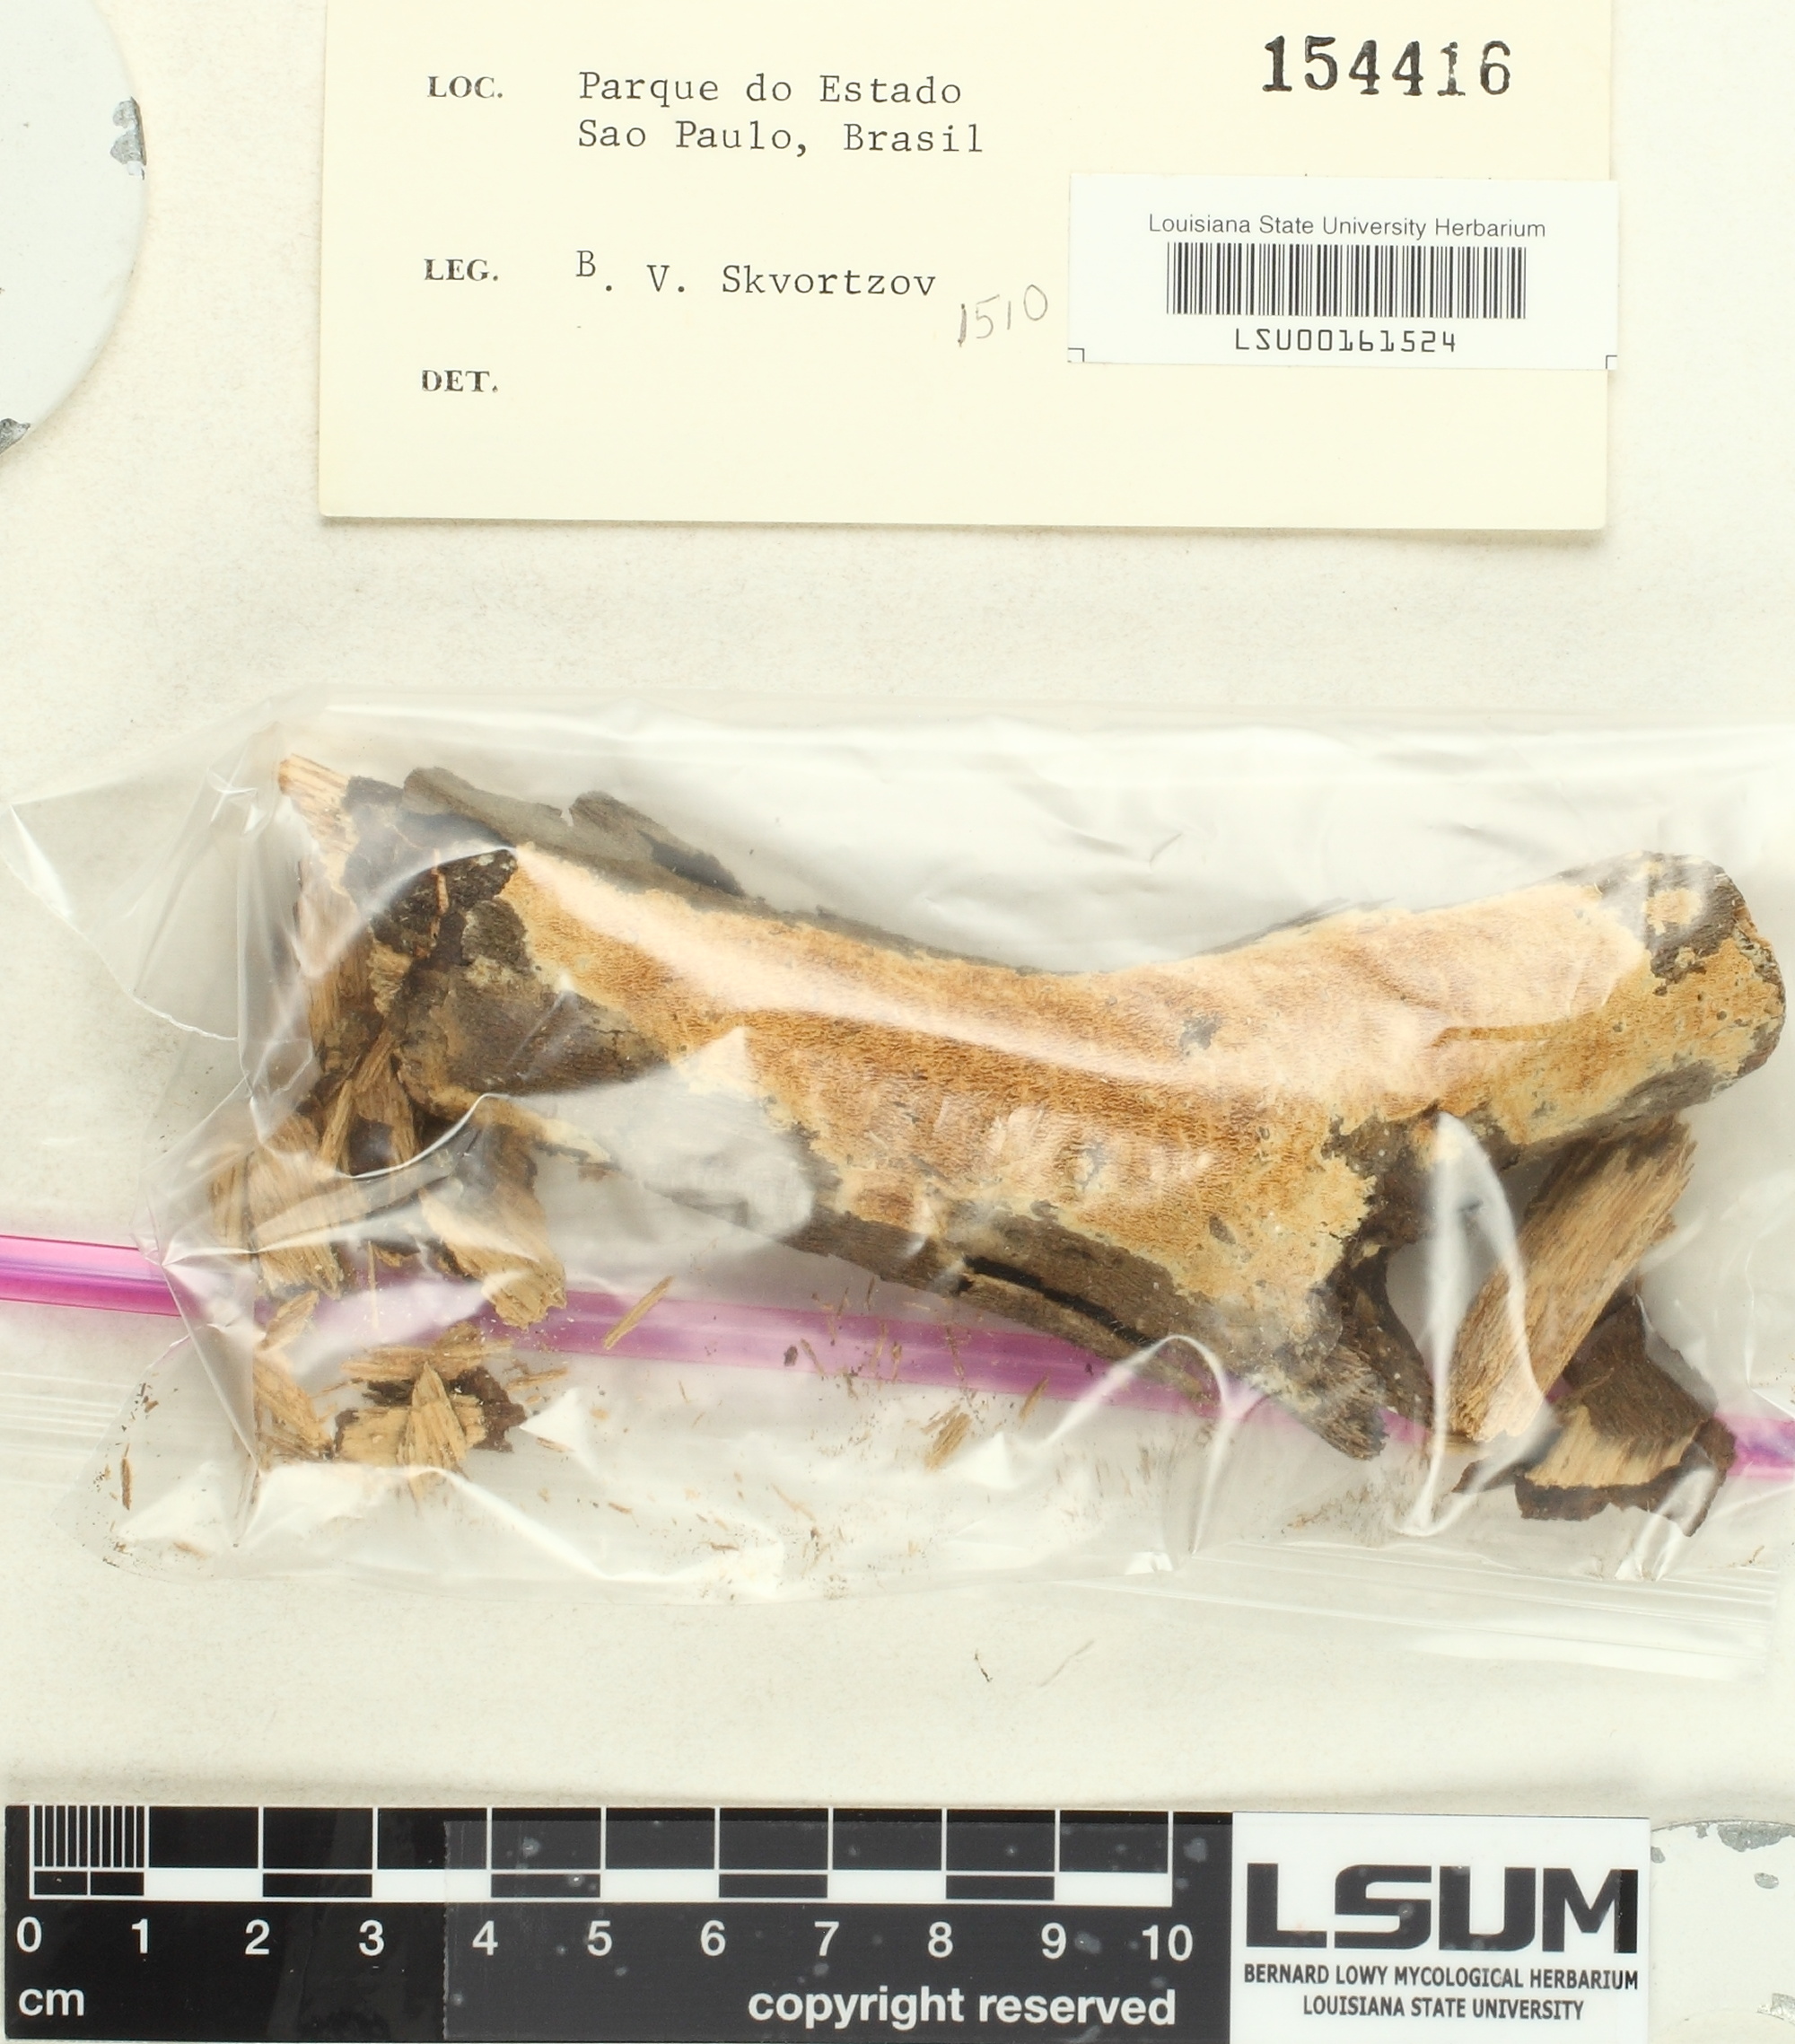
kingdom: Fungi
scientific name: Fungi
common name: Fungi
